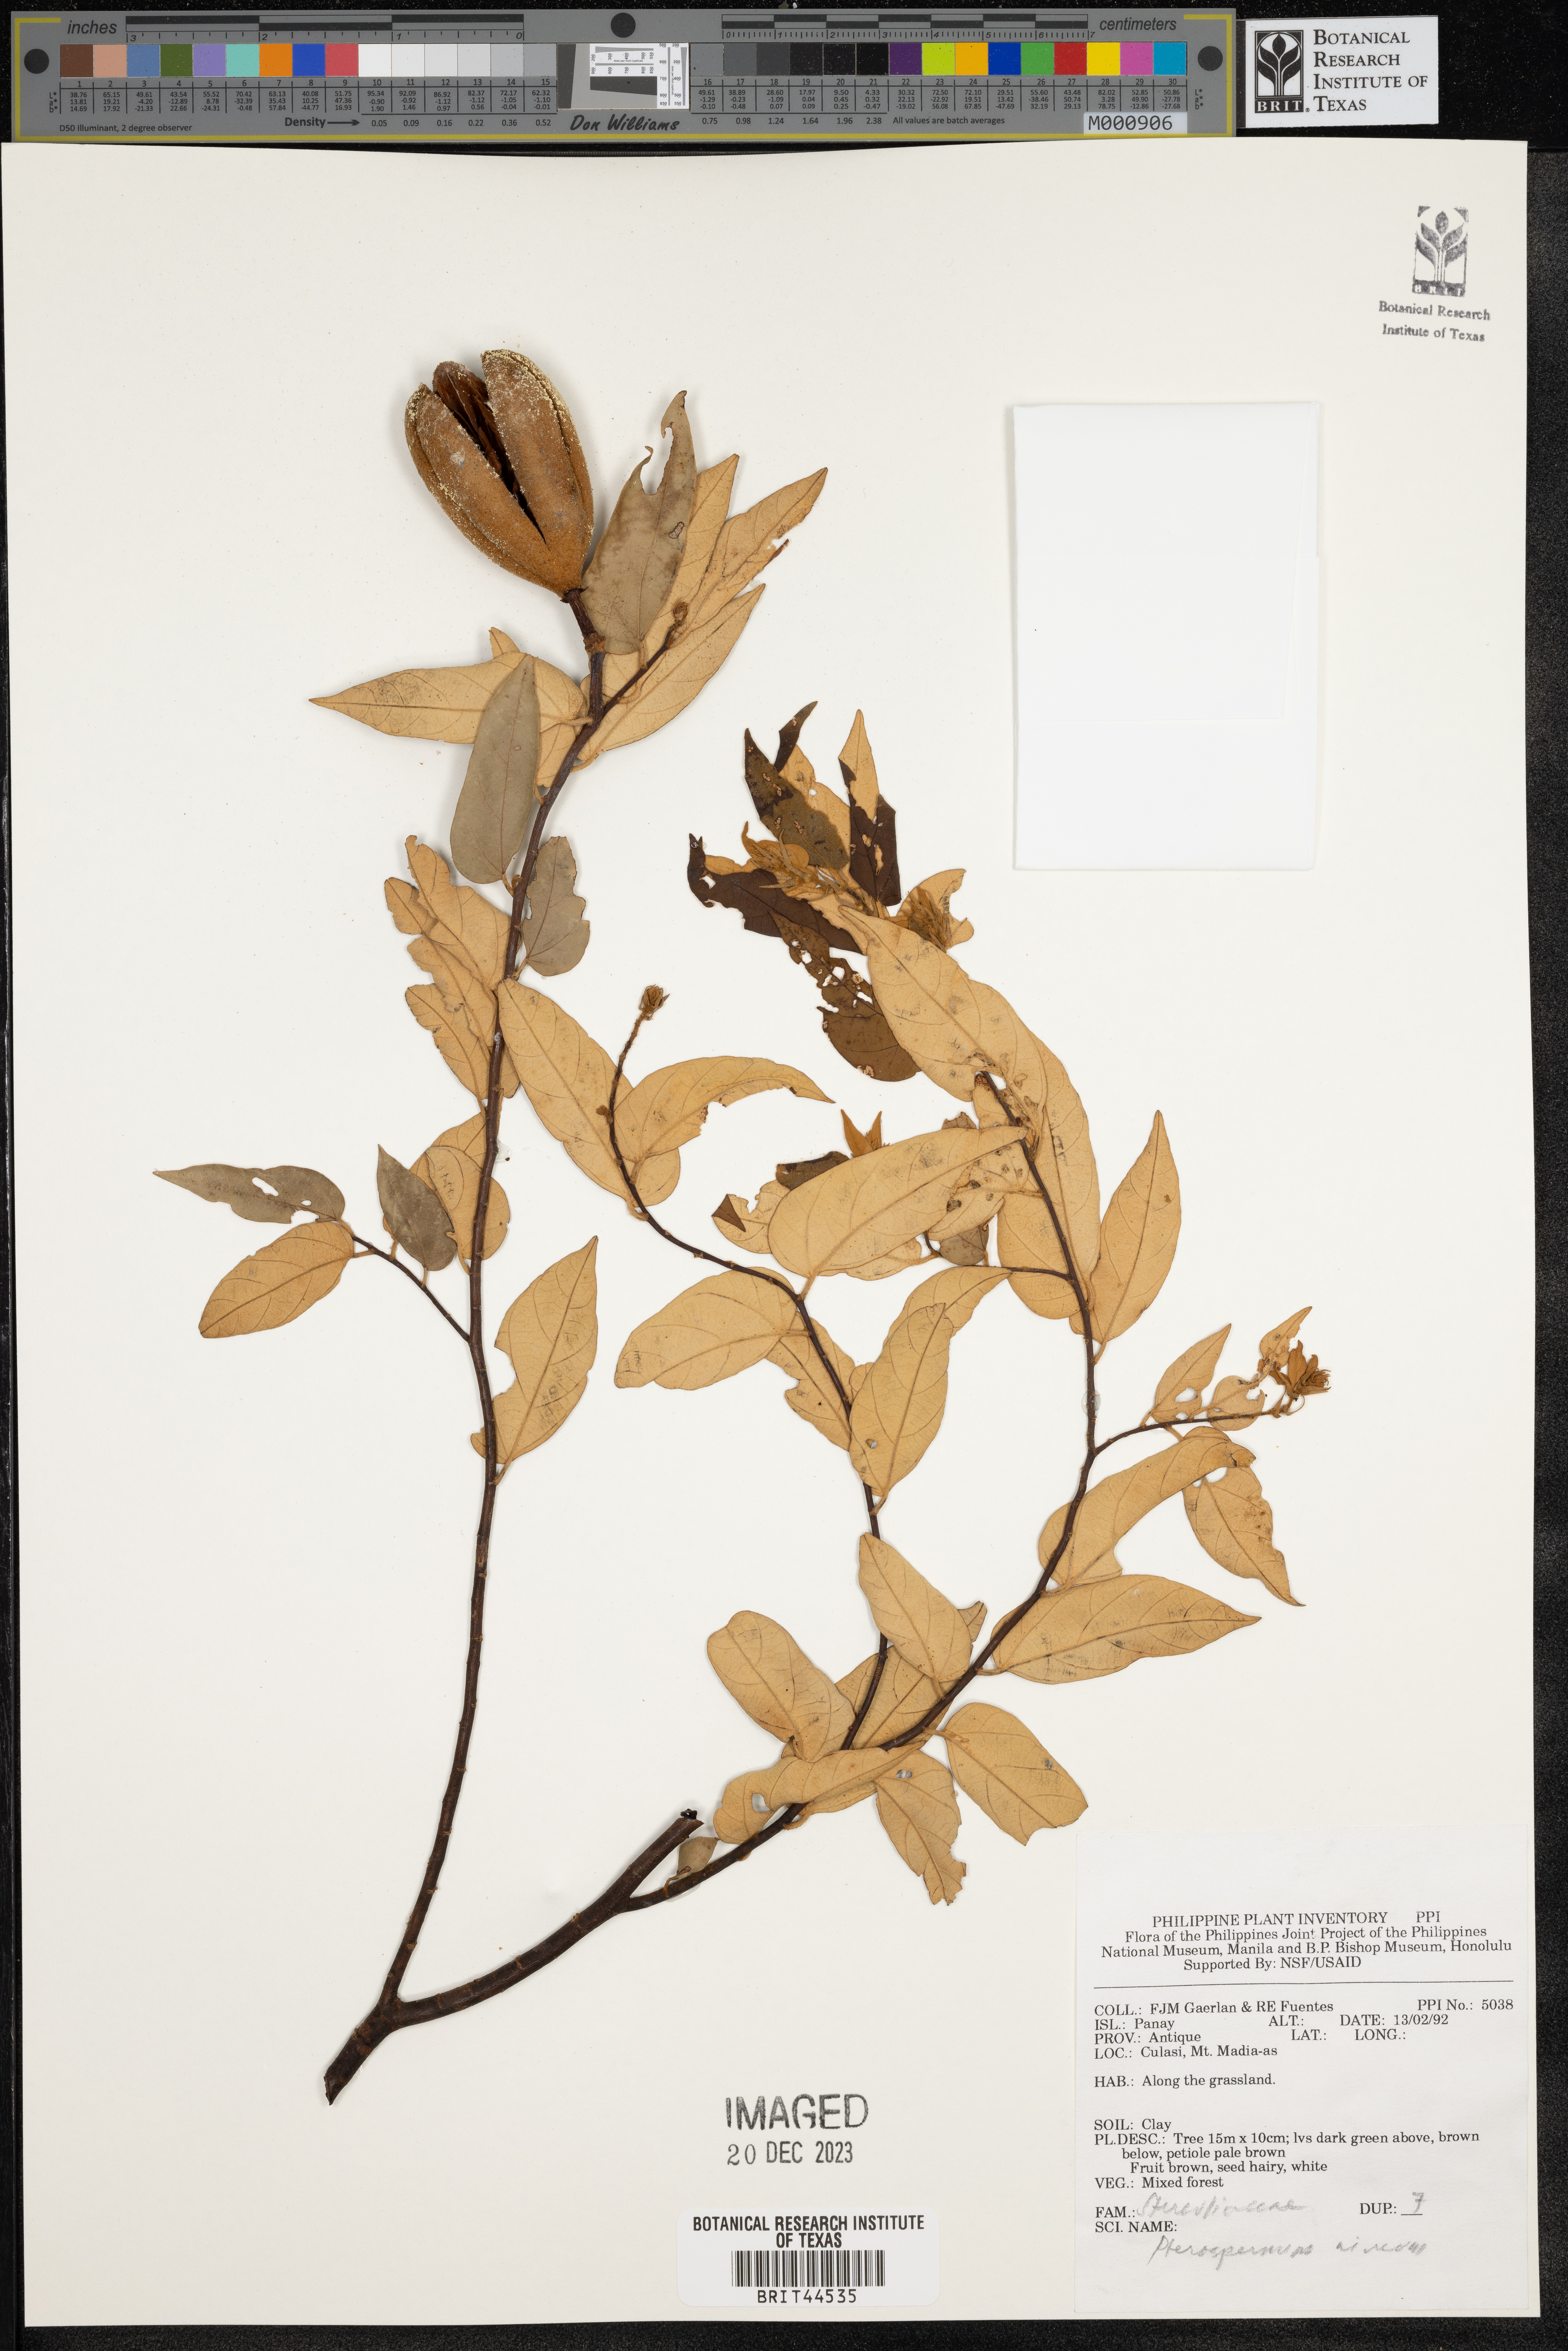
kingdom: Plantae
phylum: Tracheophyta
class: Magnoliopsida
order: Malvales
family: Malvaceae
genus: Pterospermum
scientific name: Pterospermum niveum
